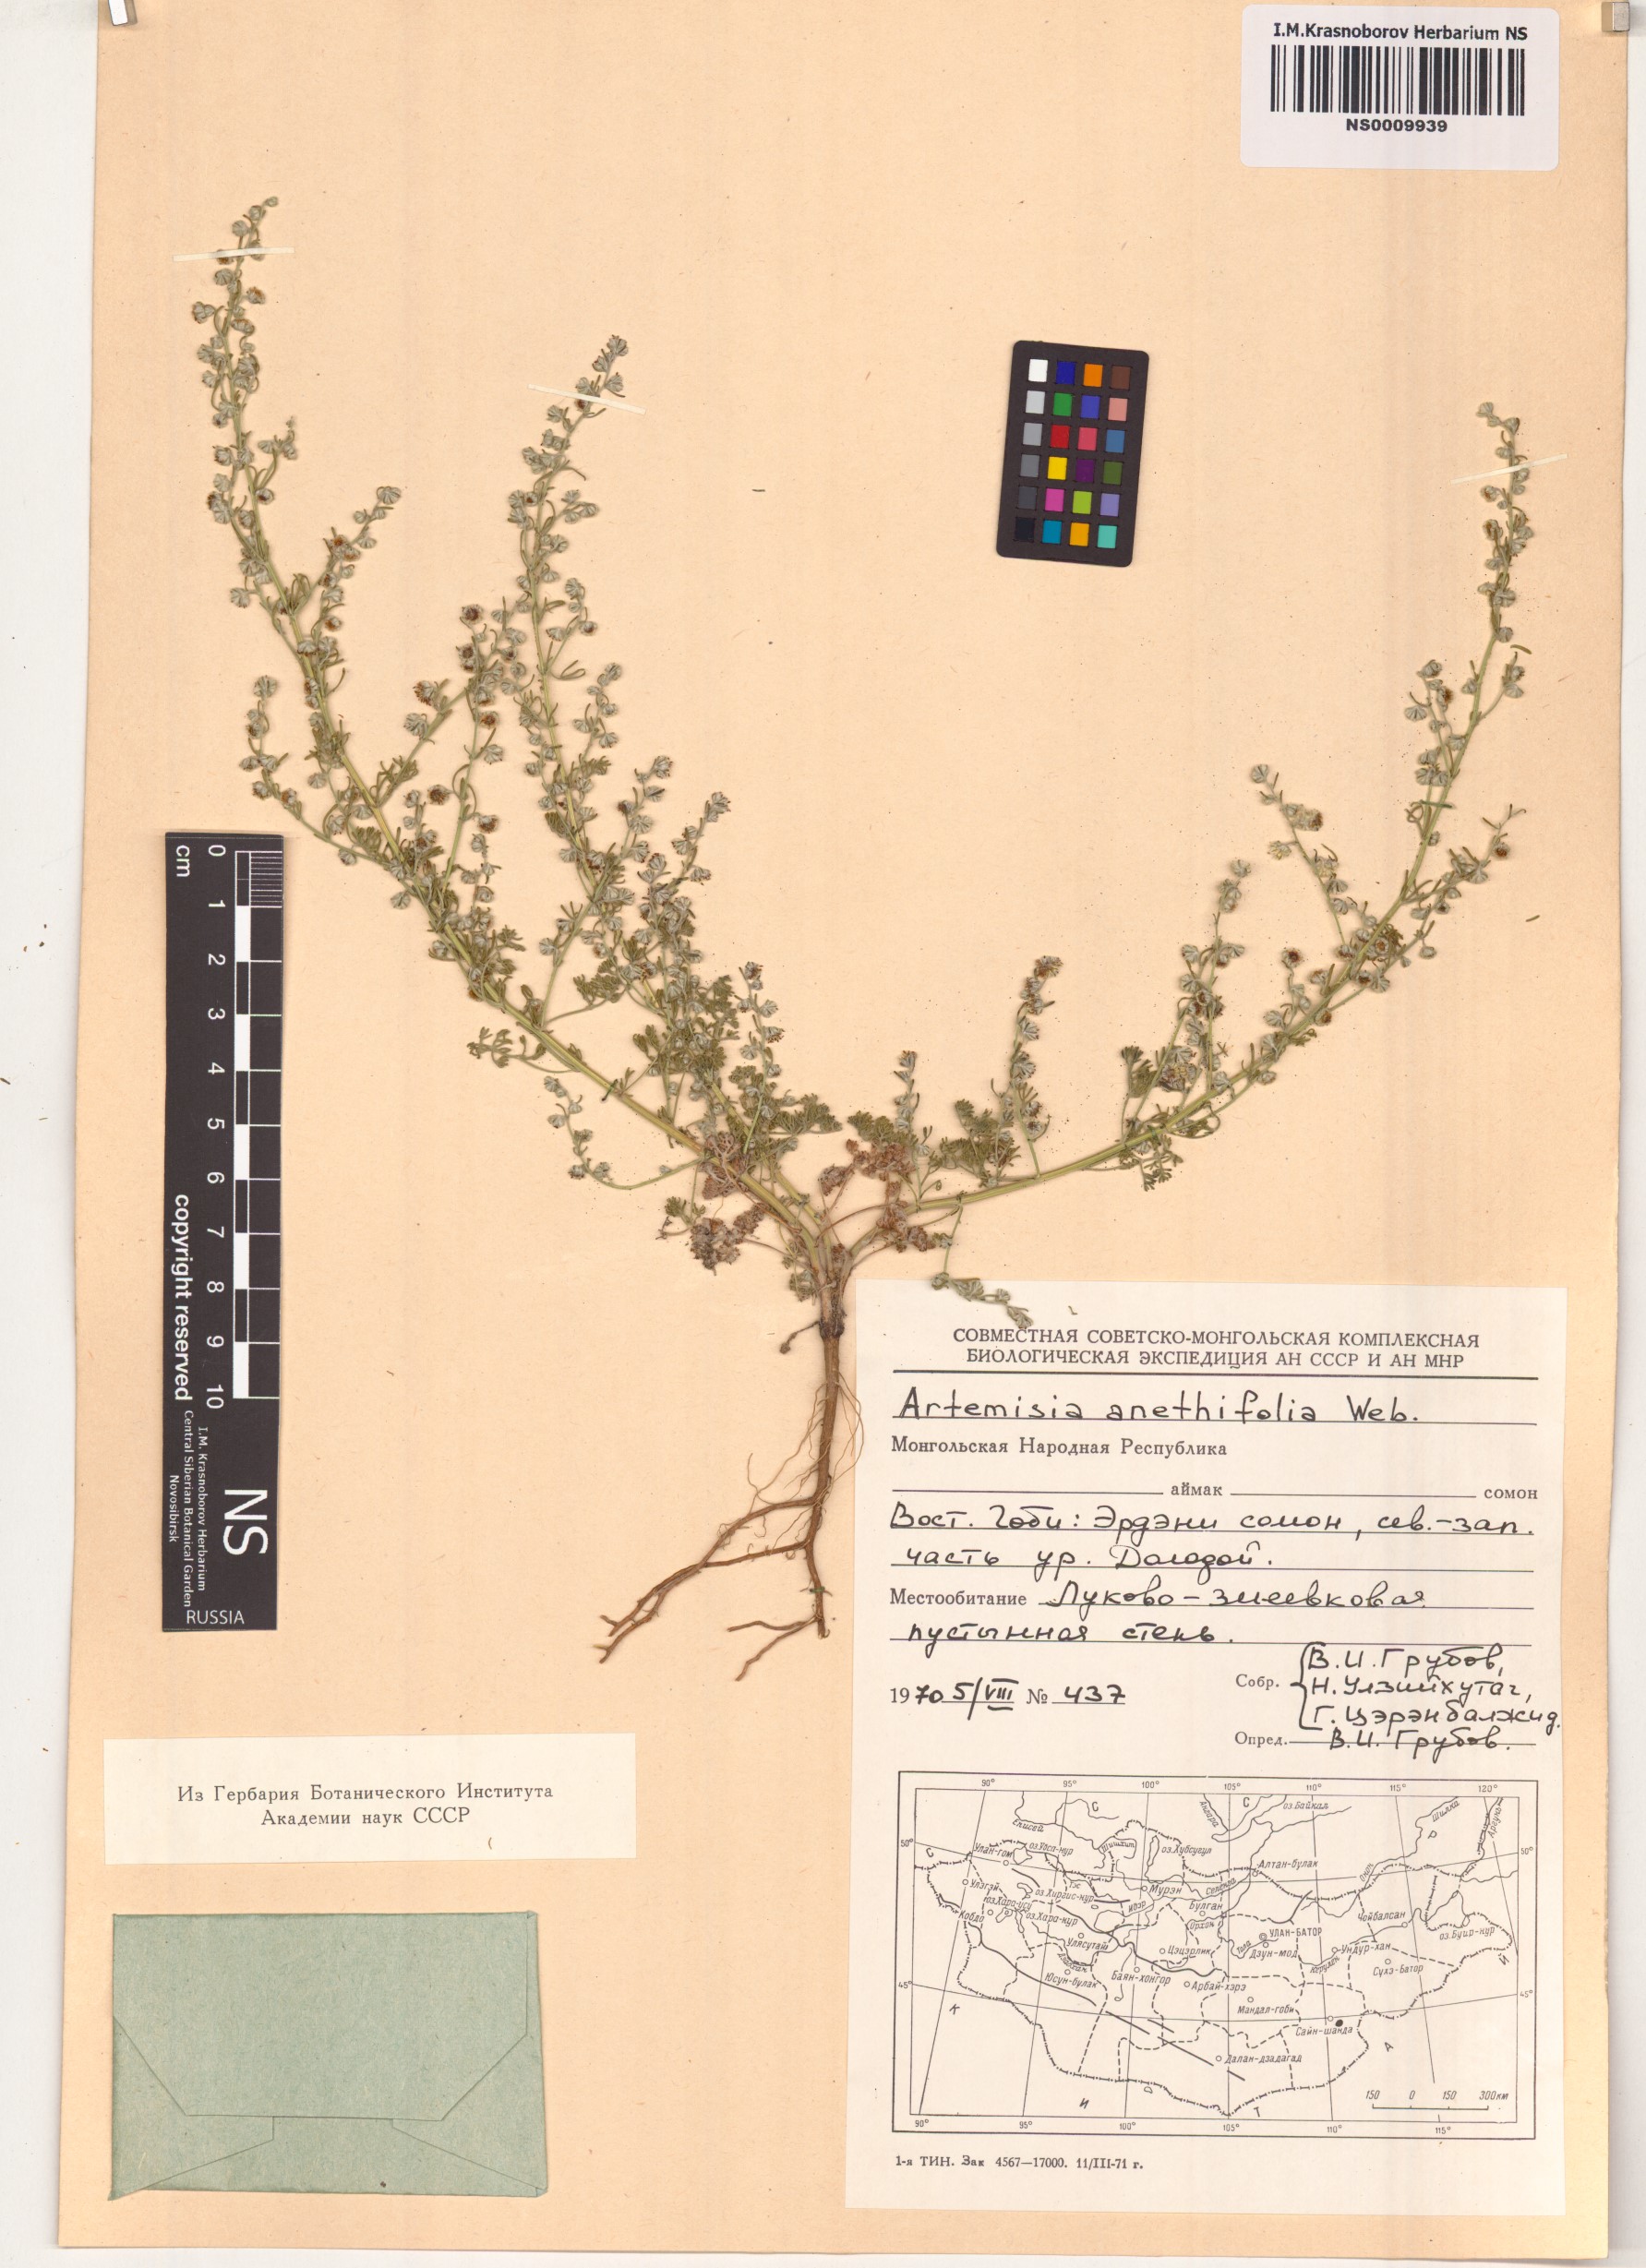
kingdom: Plantae
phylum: Tracheophyta
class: Magnoliopsida
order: Asterales
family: Asteraceae
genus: Artemisia
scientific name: Artemisia anethifolia
